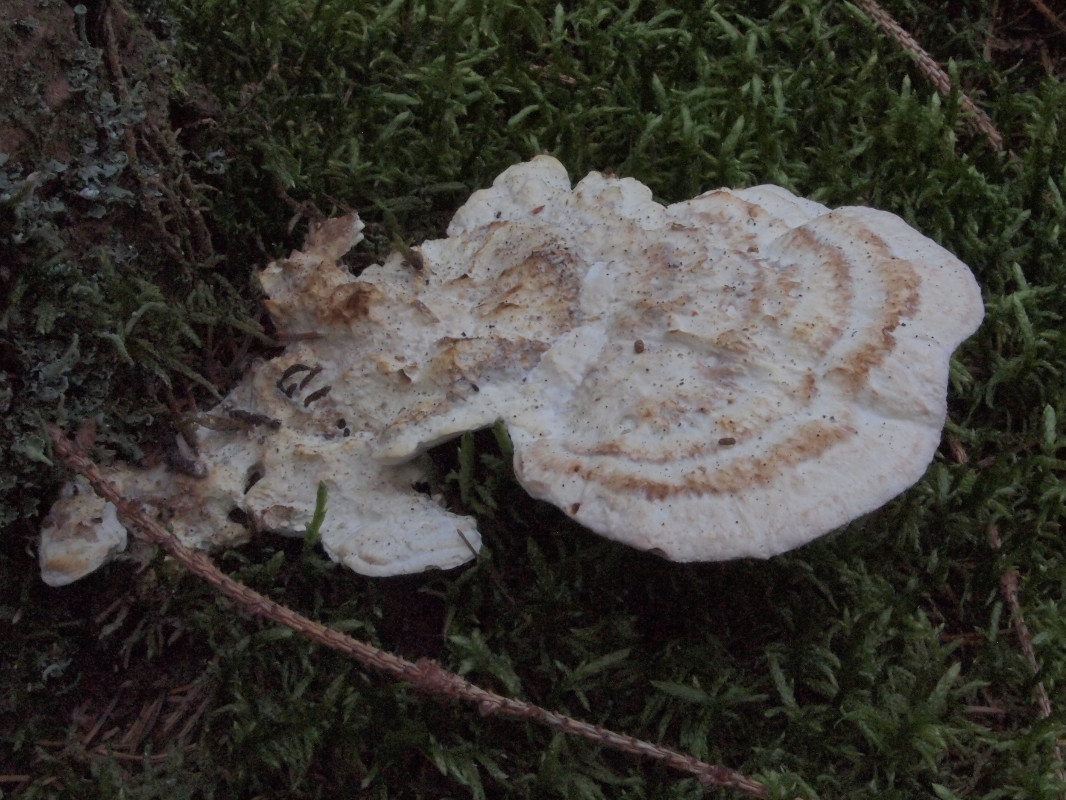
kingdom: Fungi
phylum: Basidiomycota
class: Agaricomycetes
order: Polyporales
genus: Calcipostia
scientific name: Calcipostia guttulata
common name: dråbe-kødporesvamp
